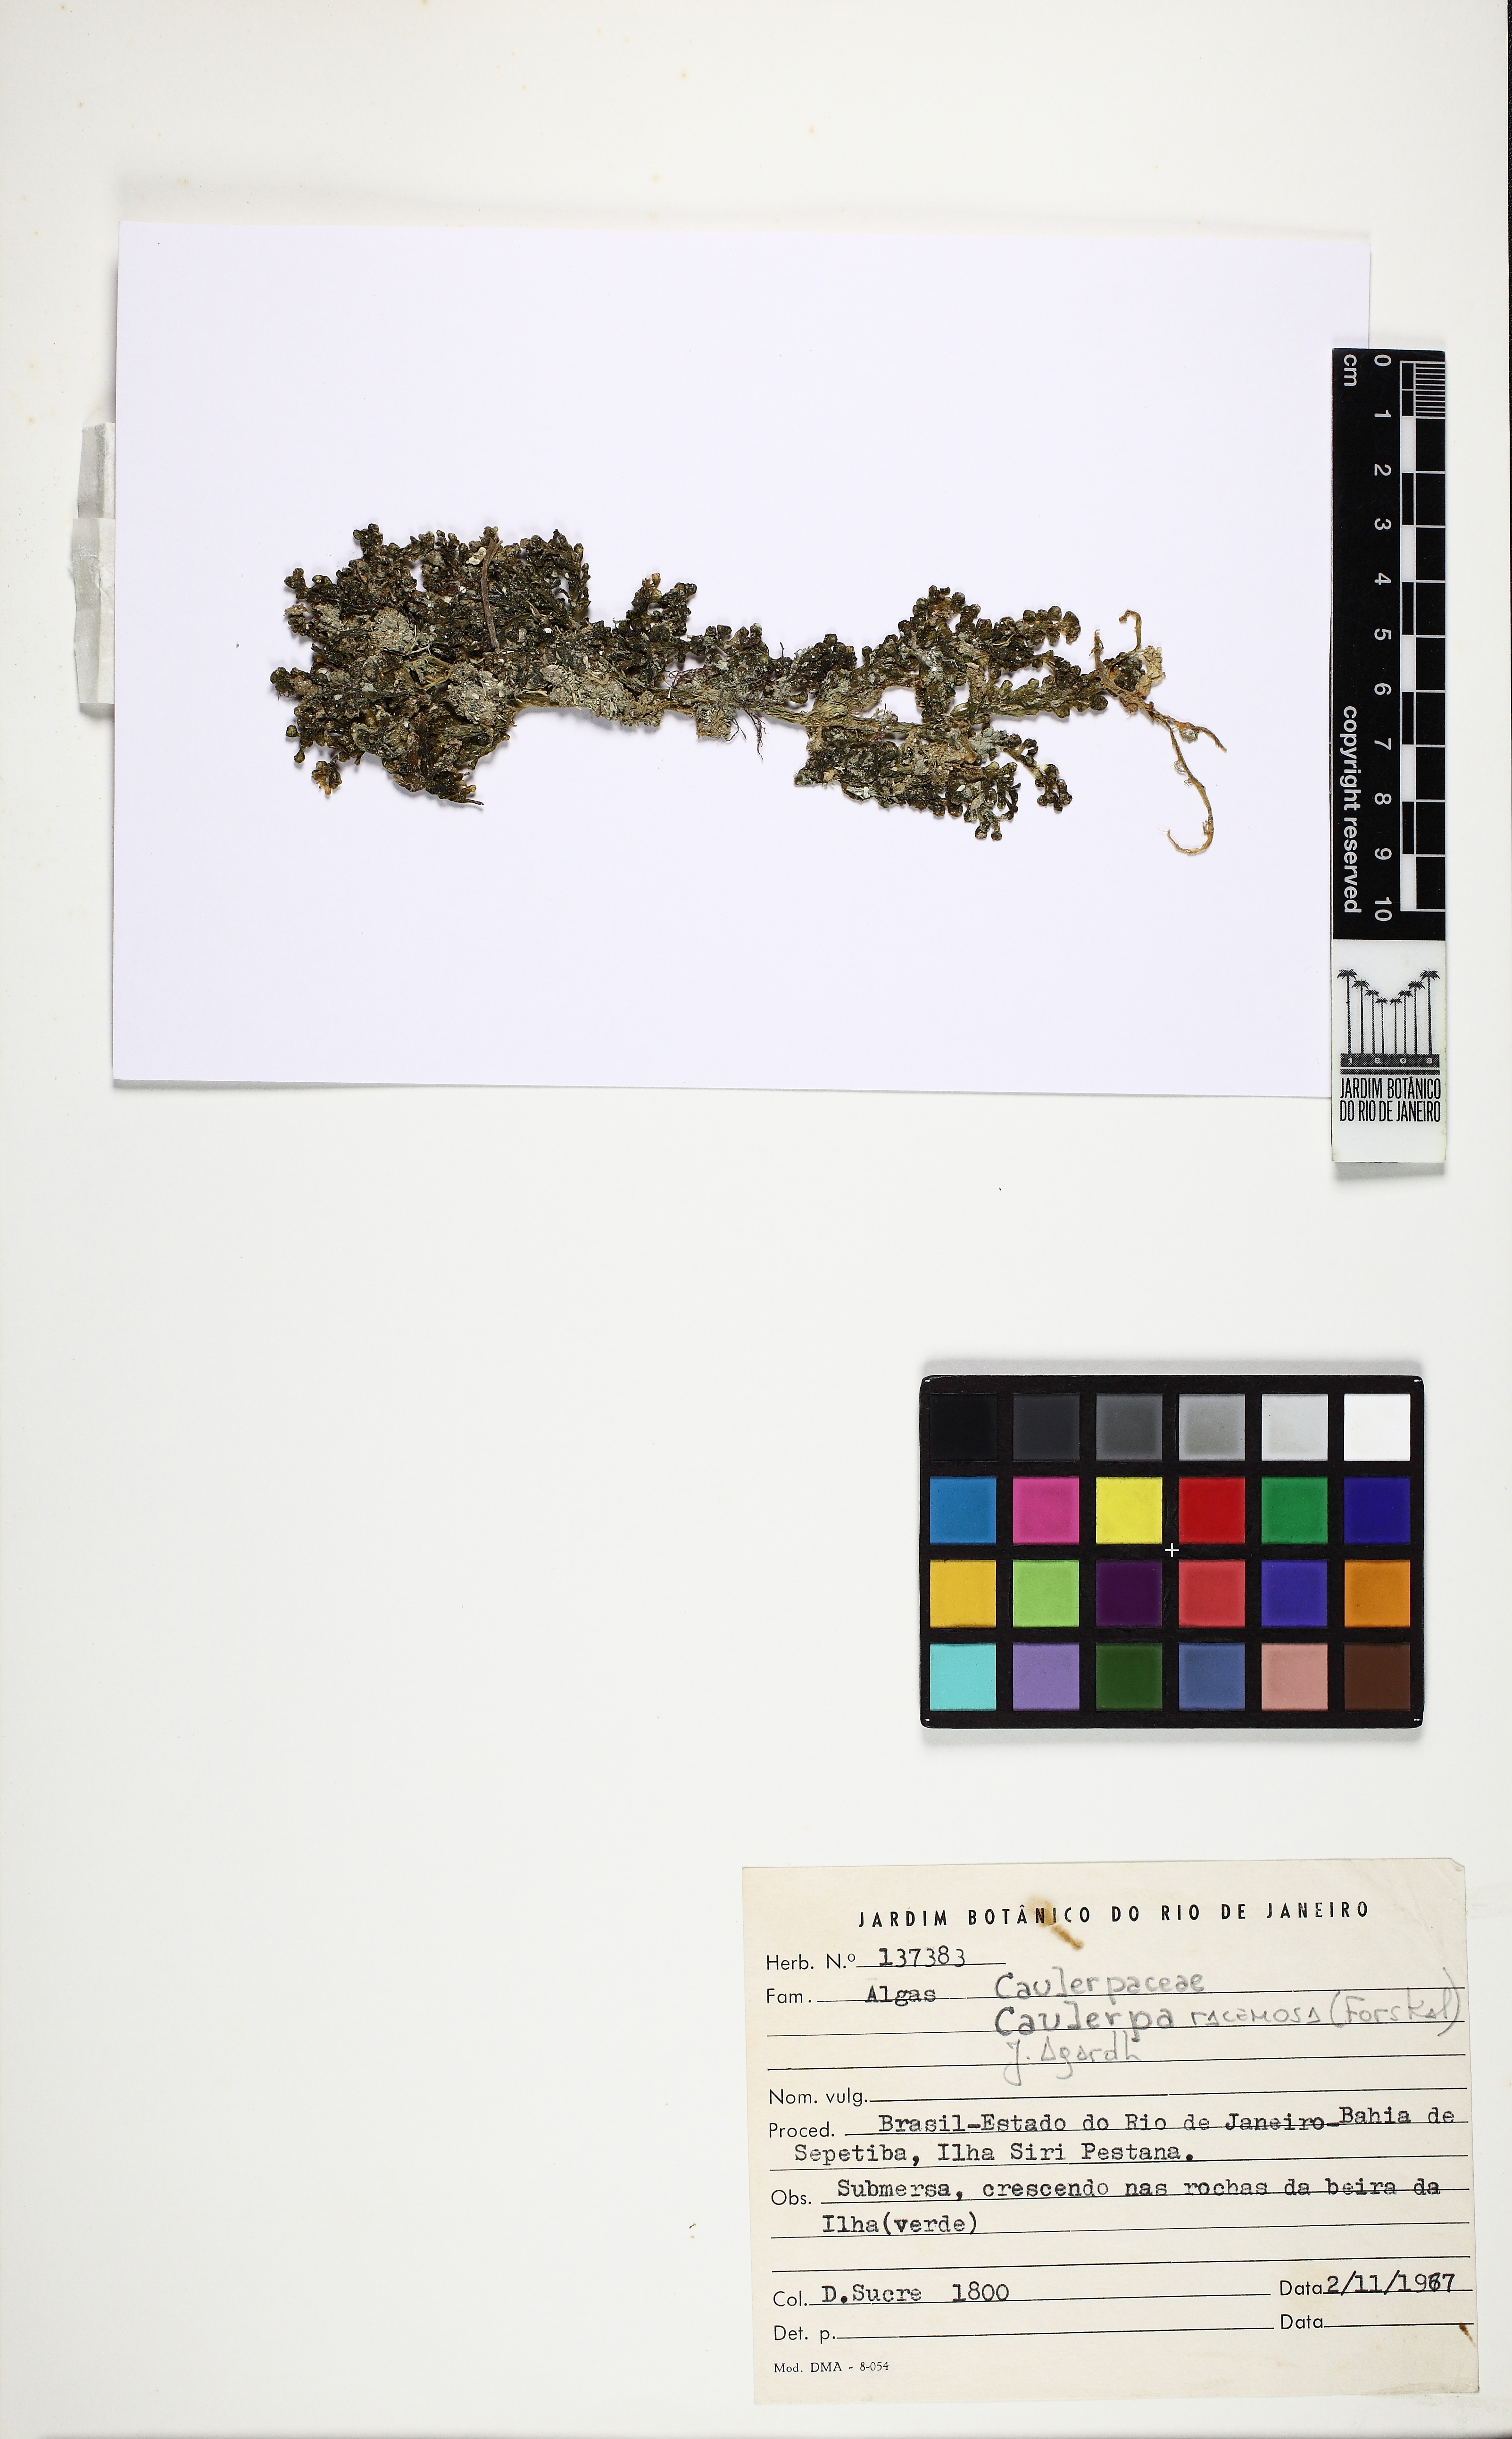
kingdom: Plantae
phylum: Chlorophyta
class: Ulvophyceae
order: Bryopsidales
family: Caulerpaceae
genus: Caulerpa
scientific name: Caulerpa racemosa
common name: Green grape algae
